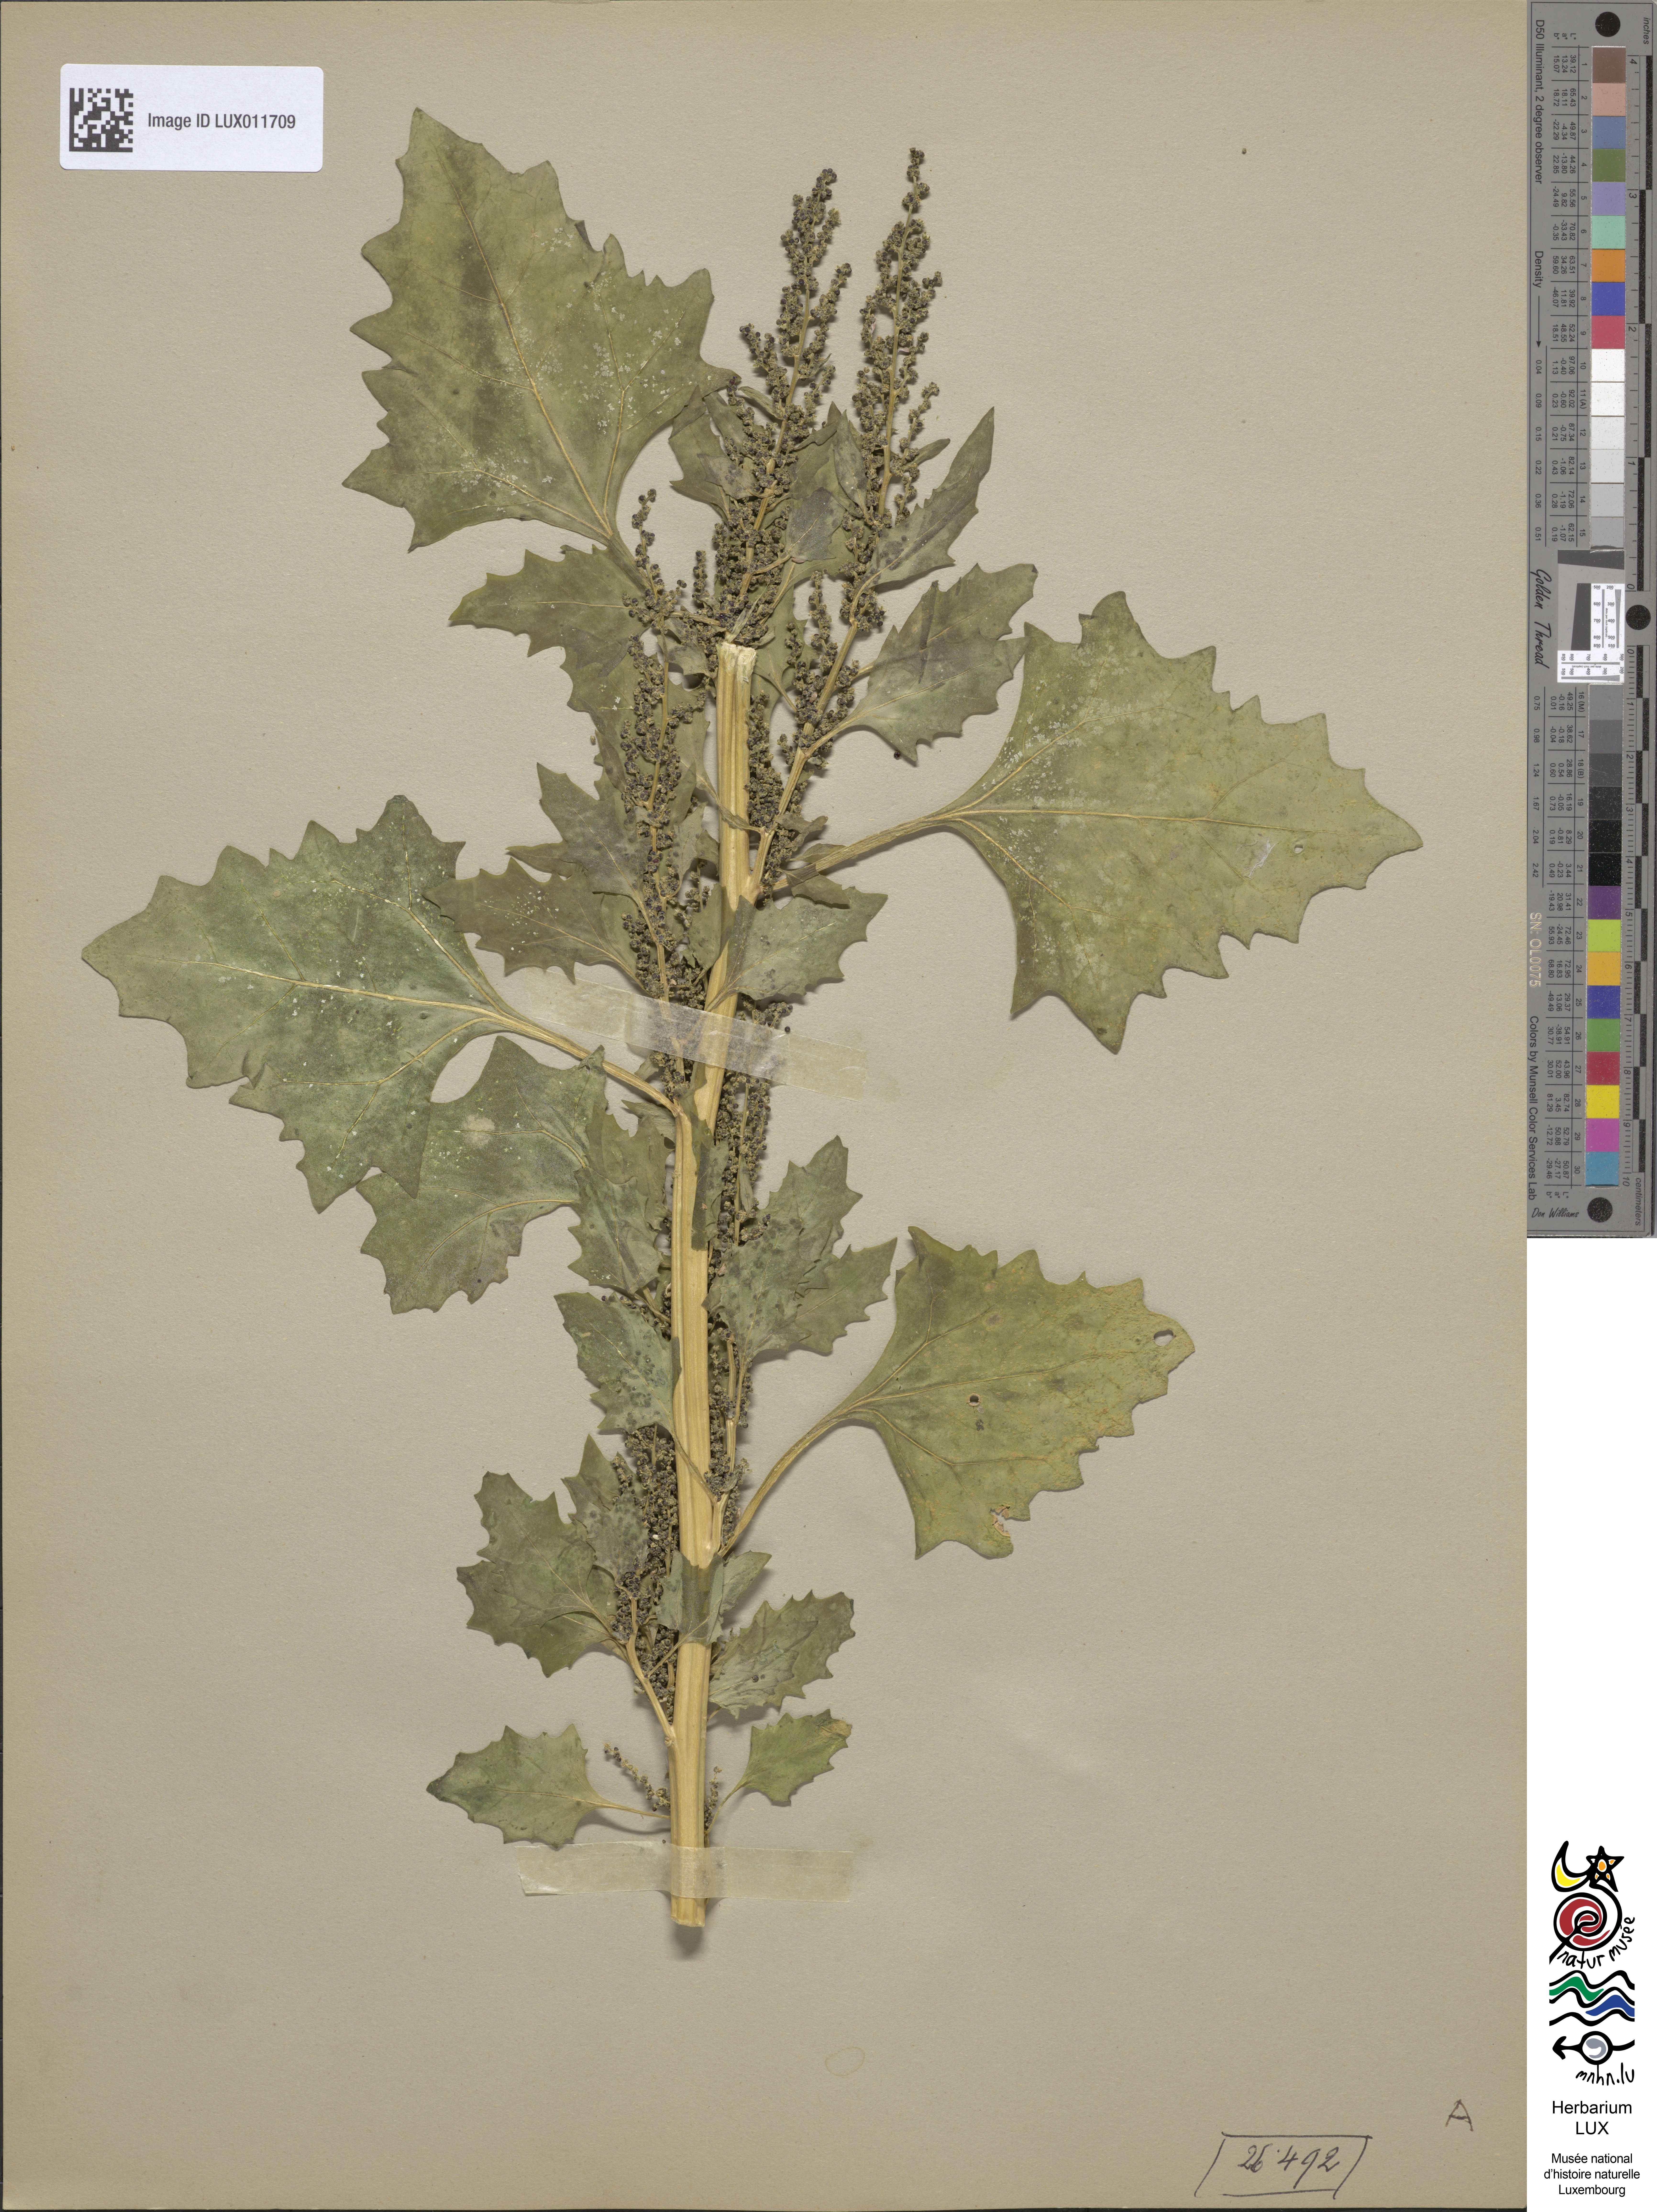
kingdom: Plantae
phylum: Tracheophyta
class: Magnoliopsida
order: Caryophyllales
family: Amaranthaceae
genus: Oxybasis
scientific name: Oxybasis urbica
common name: City goosefoot
